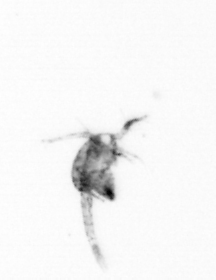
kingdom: Animalia
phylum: Arthropoda
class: Copepoda
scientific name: Copepoda
